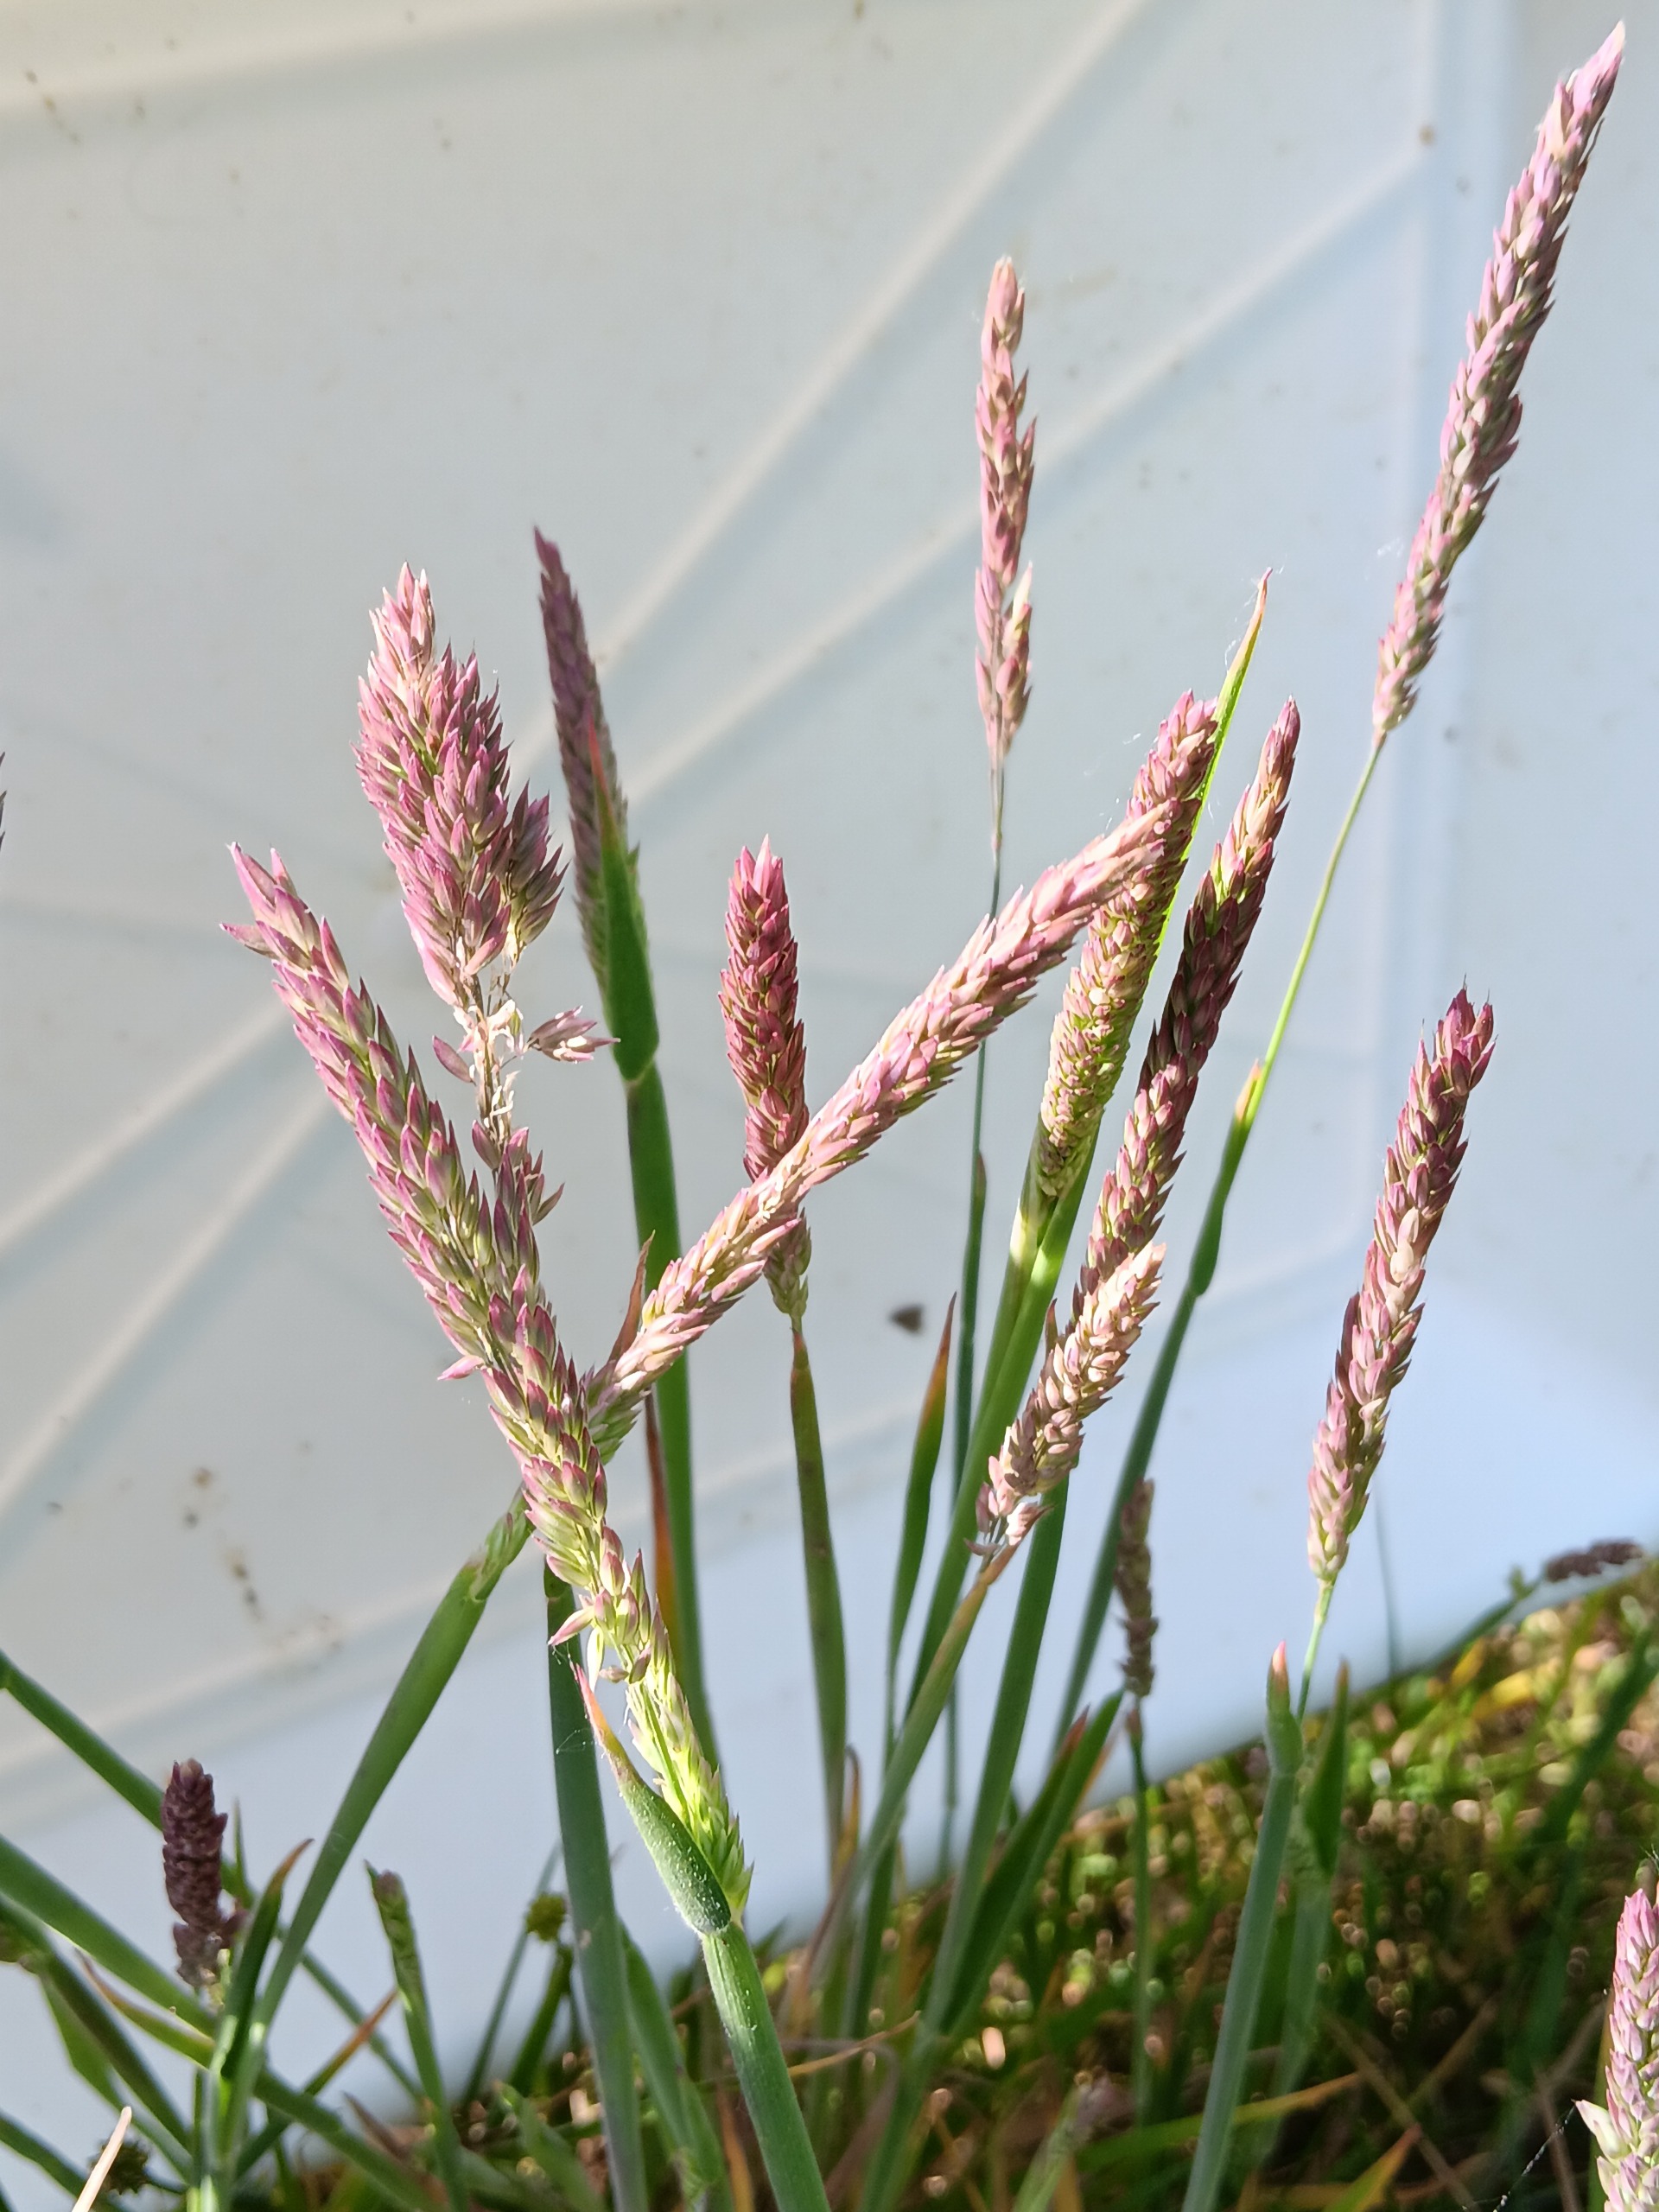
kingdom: Plantae
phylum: Tracheophyta
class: Liliopsida
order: Poales
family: Poaceae
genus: Holcus
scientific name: Holcus lanatus
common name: Fløjlsgræs
